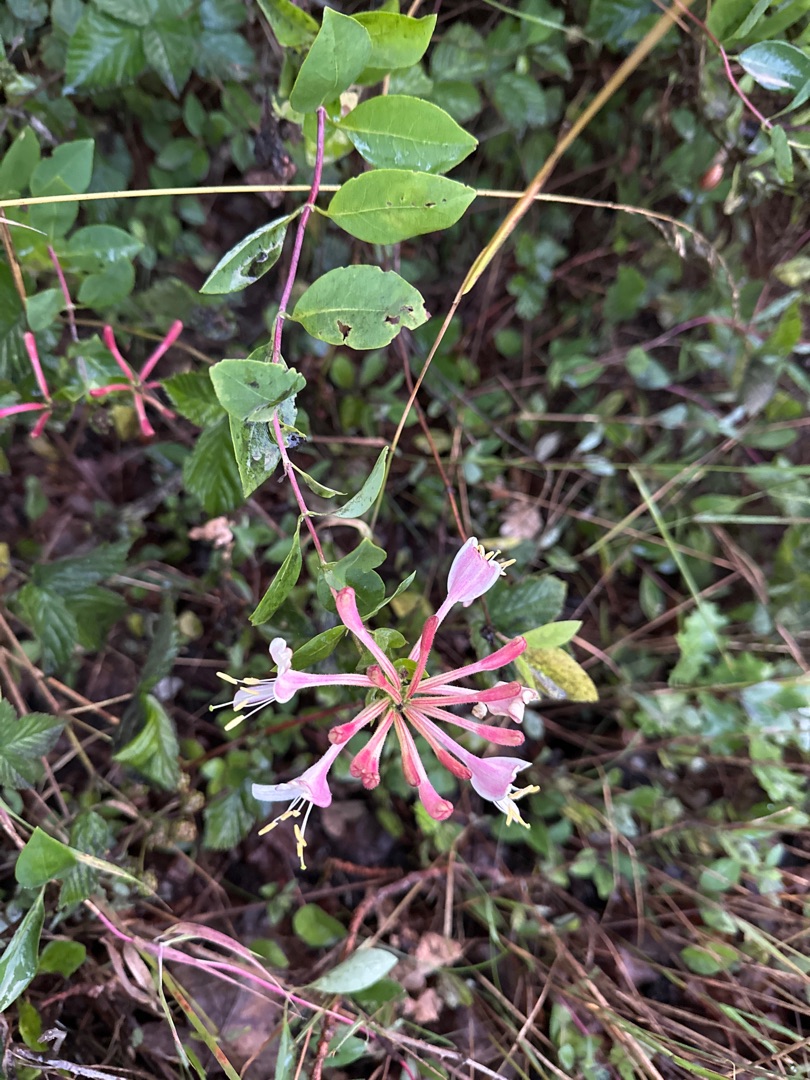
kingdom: Plantae
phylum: Tracheophyta
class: Magnoliopsida
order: Dipsacales
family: Caprifoliaceae
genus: Lonicera
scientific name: Lonicera periclymenum
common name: Almindelig gedeblad
